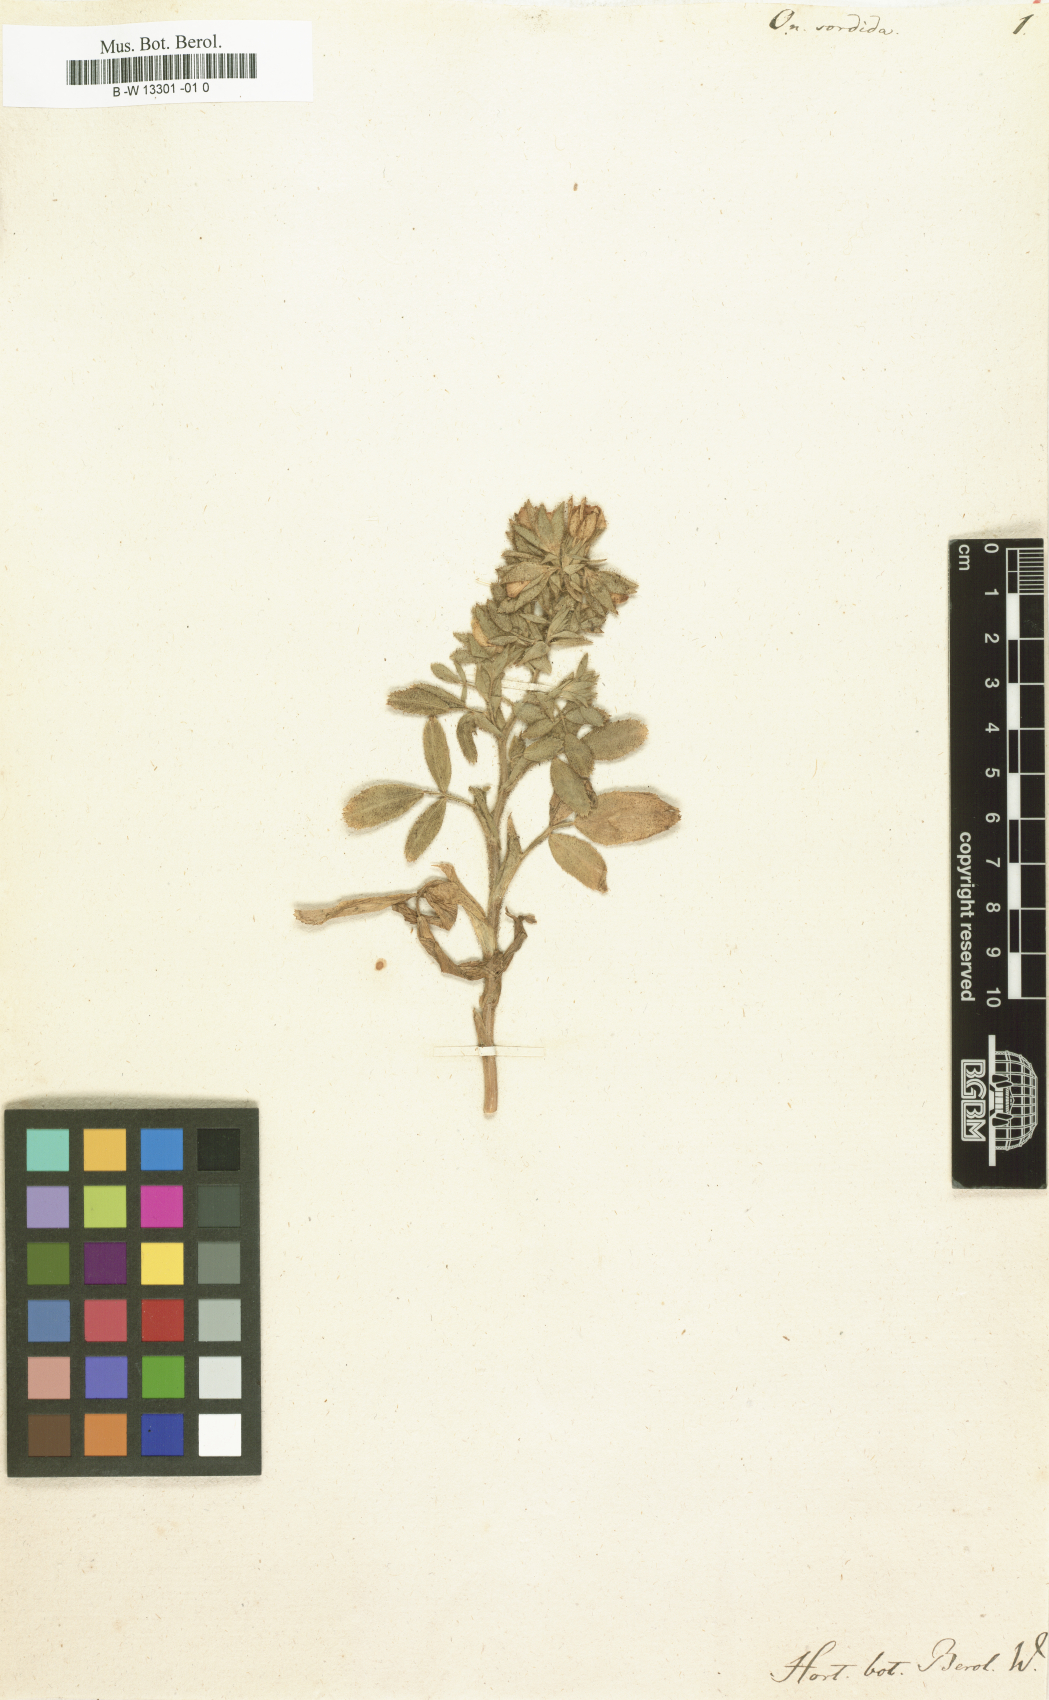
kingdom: Plantae
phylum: Tracheophyta
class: Magnoliopsida
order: Fabales
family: Fabaceae
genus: Ononis
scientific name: Ononis
